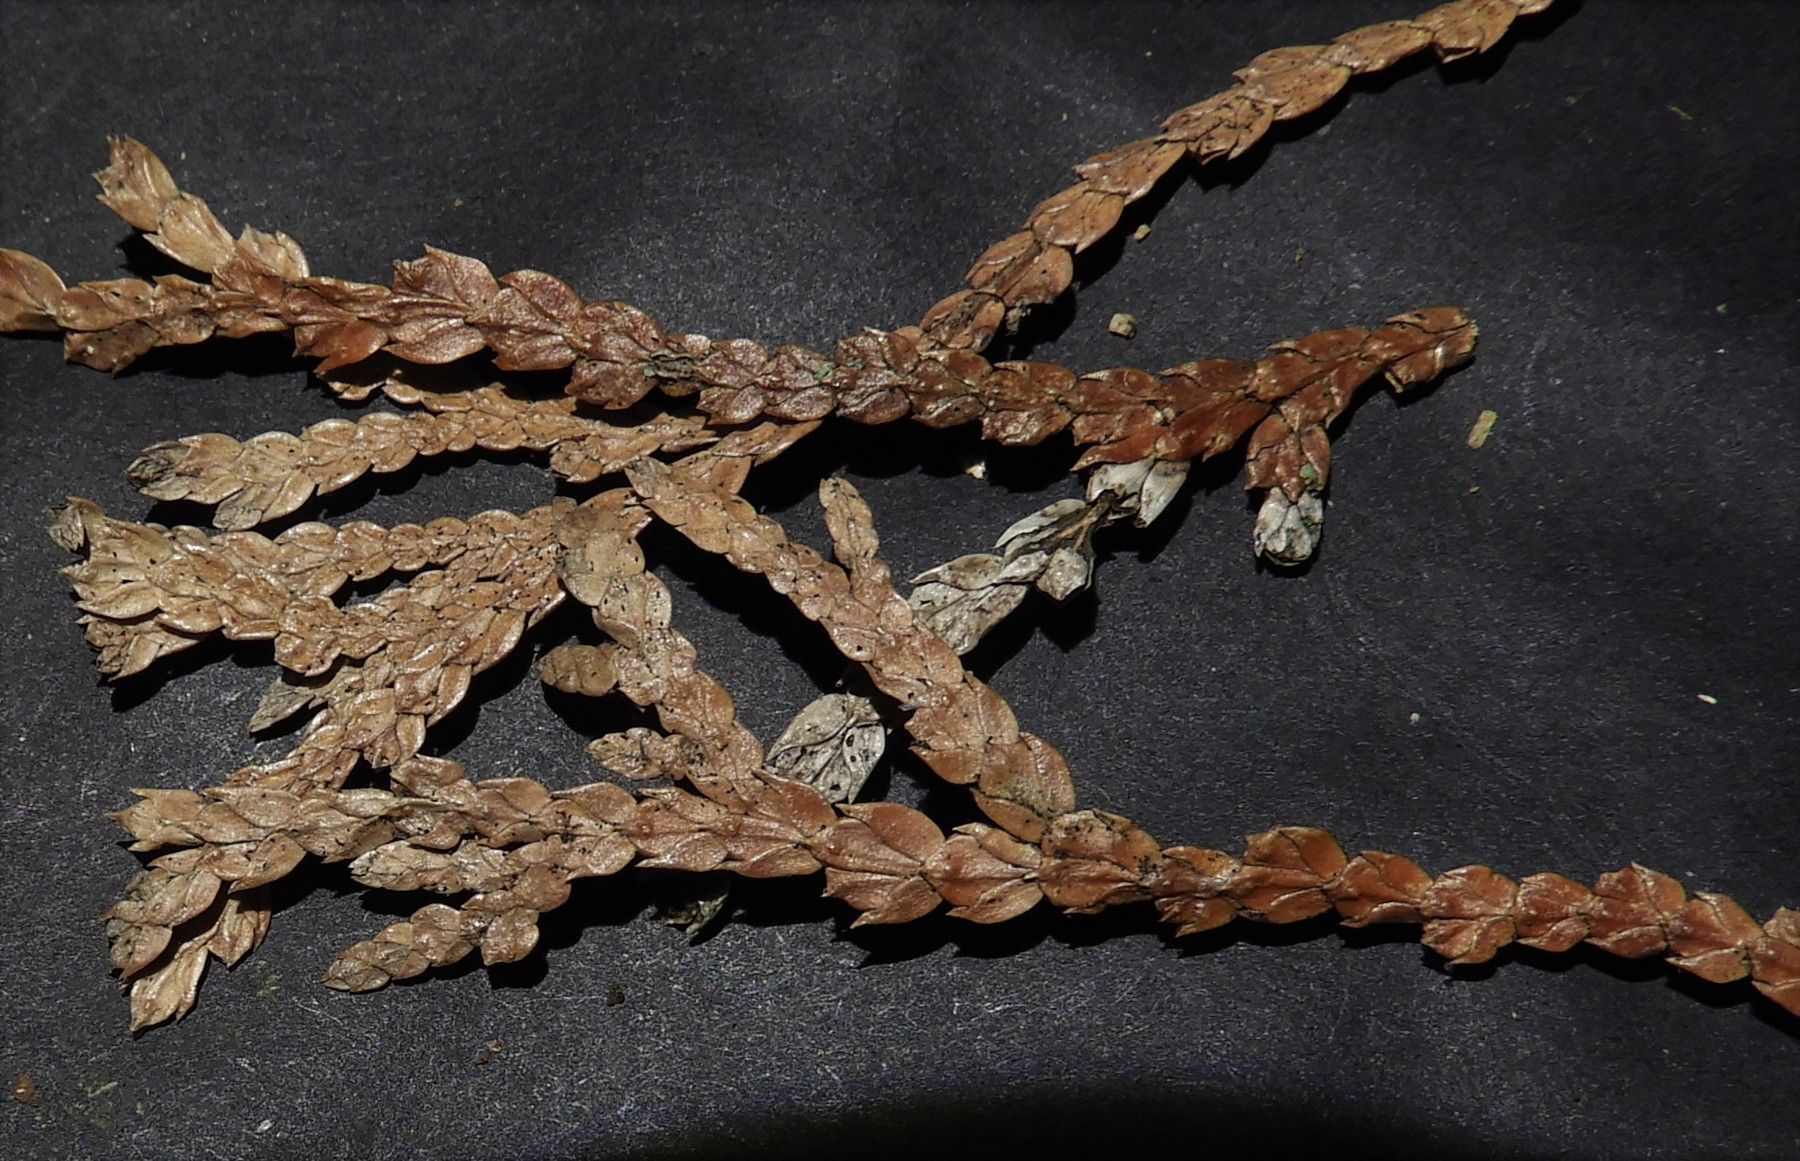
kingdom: Fungi
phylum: Ascomycota
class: Sordariomycetes
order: Amphisphaeriales
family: Pestalotiopsidaceae
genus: Pestalotiopsis
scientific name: Pestalotiopsis funerea
